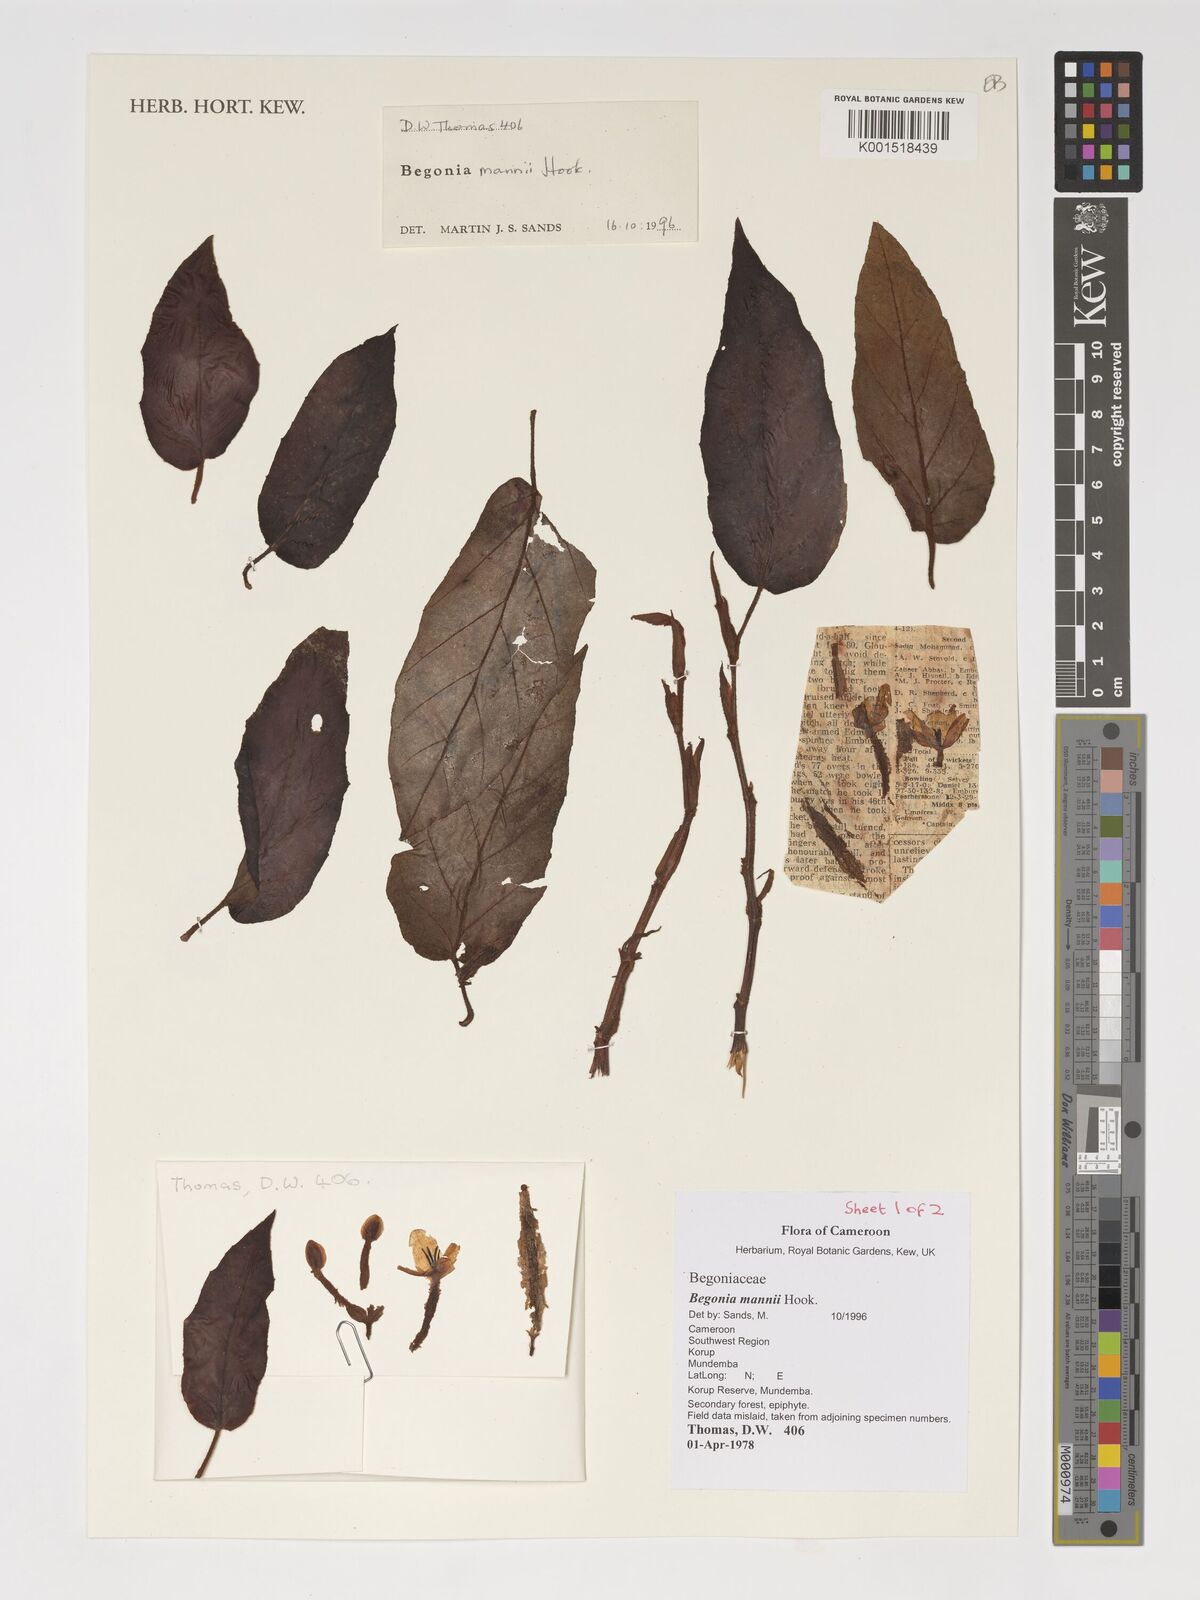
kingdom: Plantae
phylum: Tracheophyta
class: Magnoliopsida
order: Cucurbitales
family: Begoniaceae
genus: Begonia
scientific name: Begonia mannii
